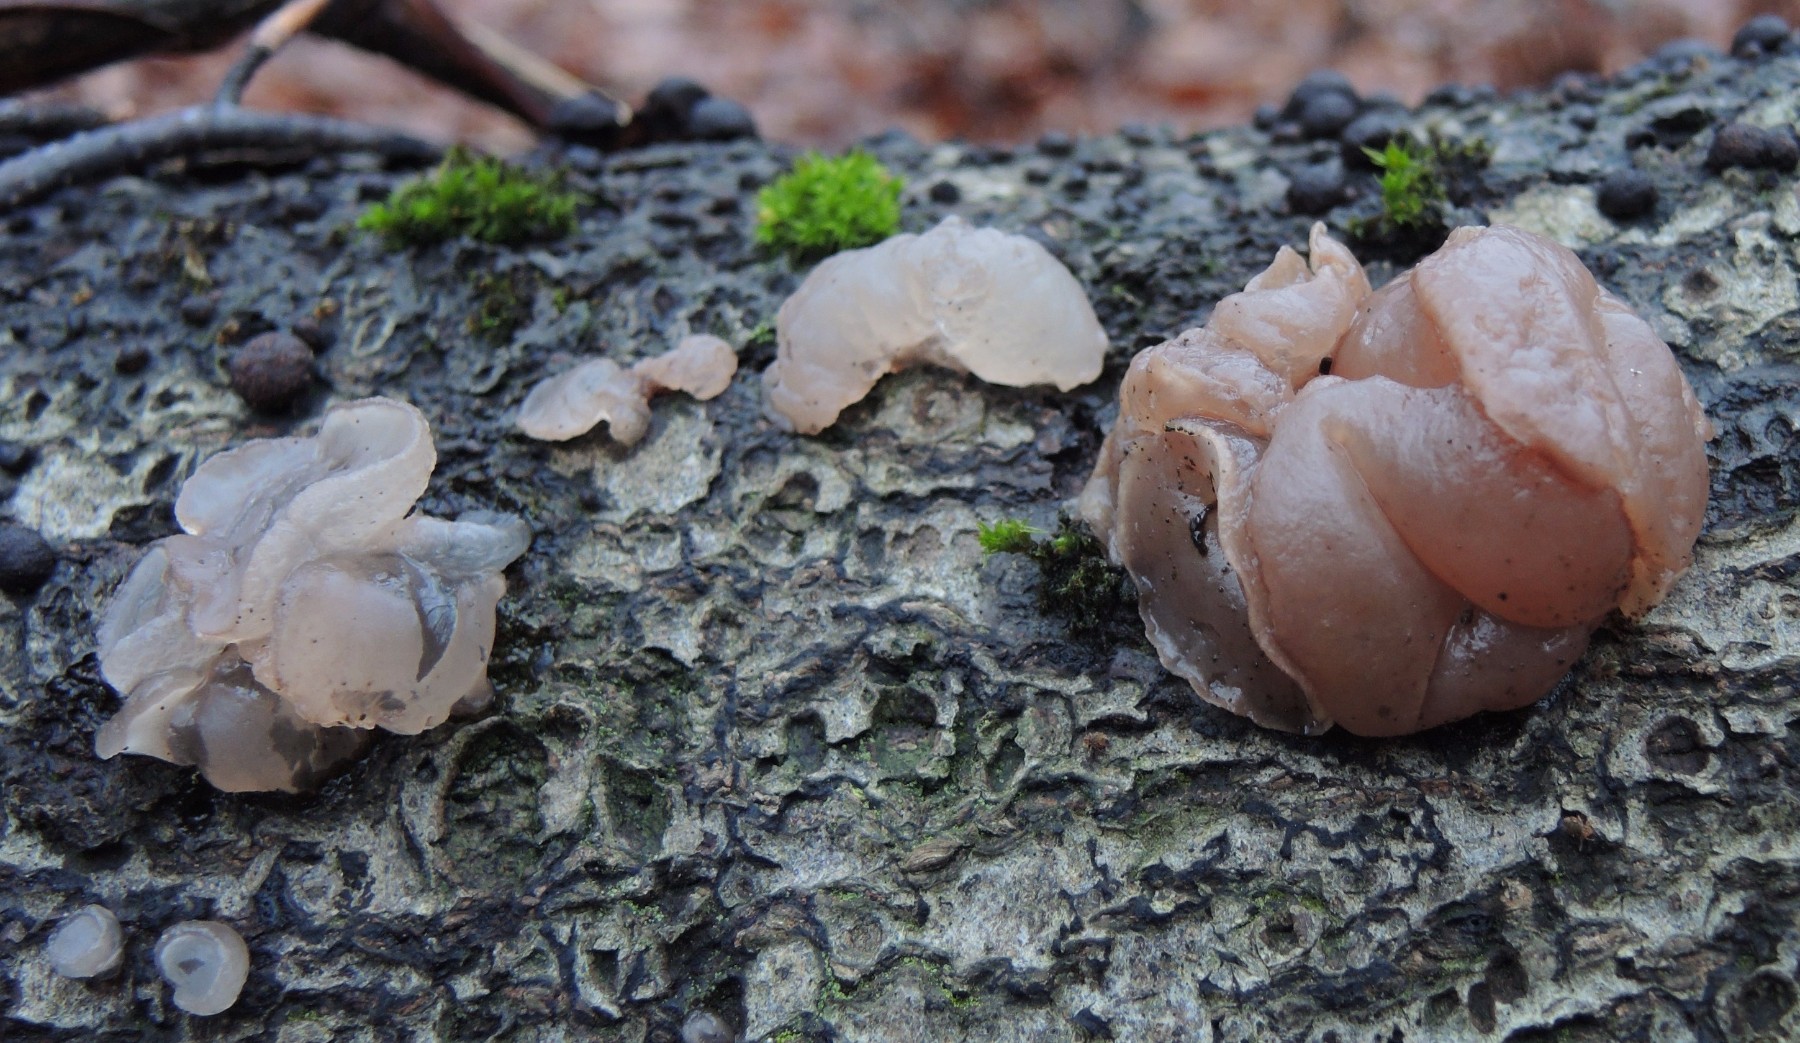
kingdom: Fungi
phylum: Ascomycota
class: Leotiomycetes
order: Helotiales
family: Gelatinodiscaceae
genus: Neobulgaria
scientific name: Neobulgaria pura
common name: bleg bævreskive
